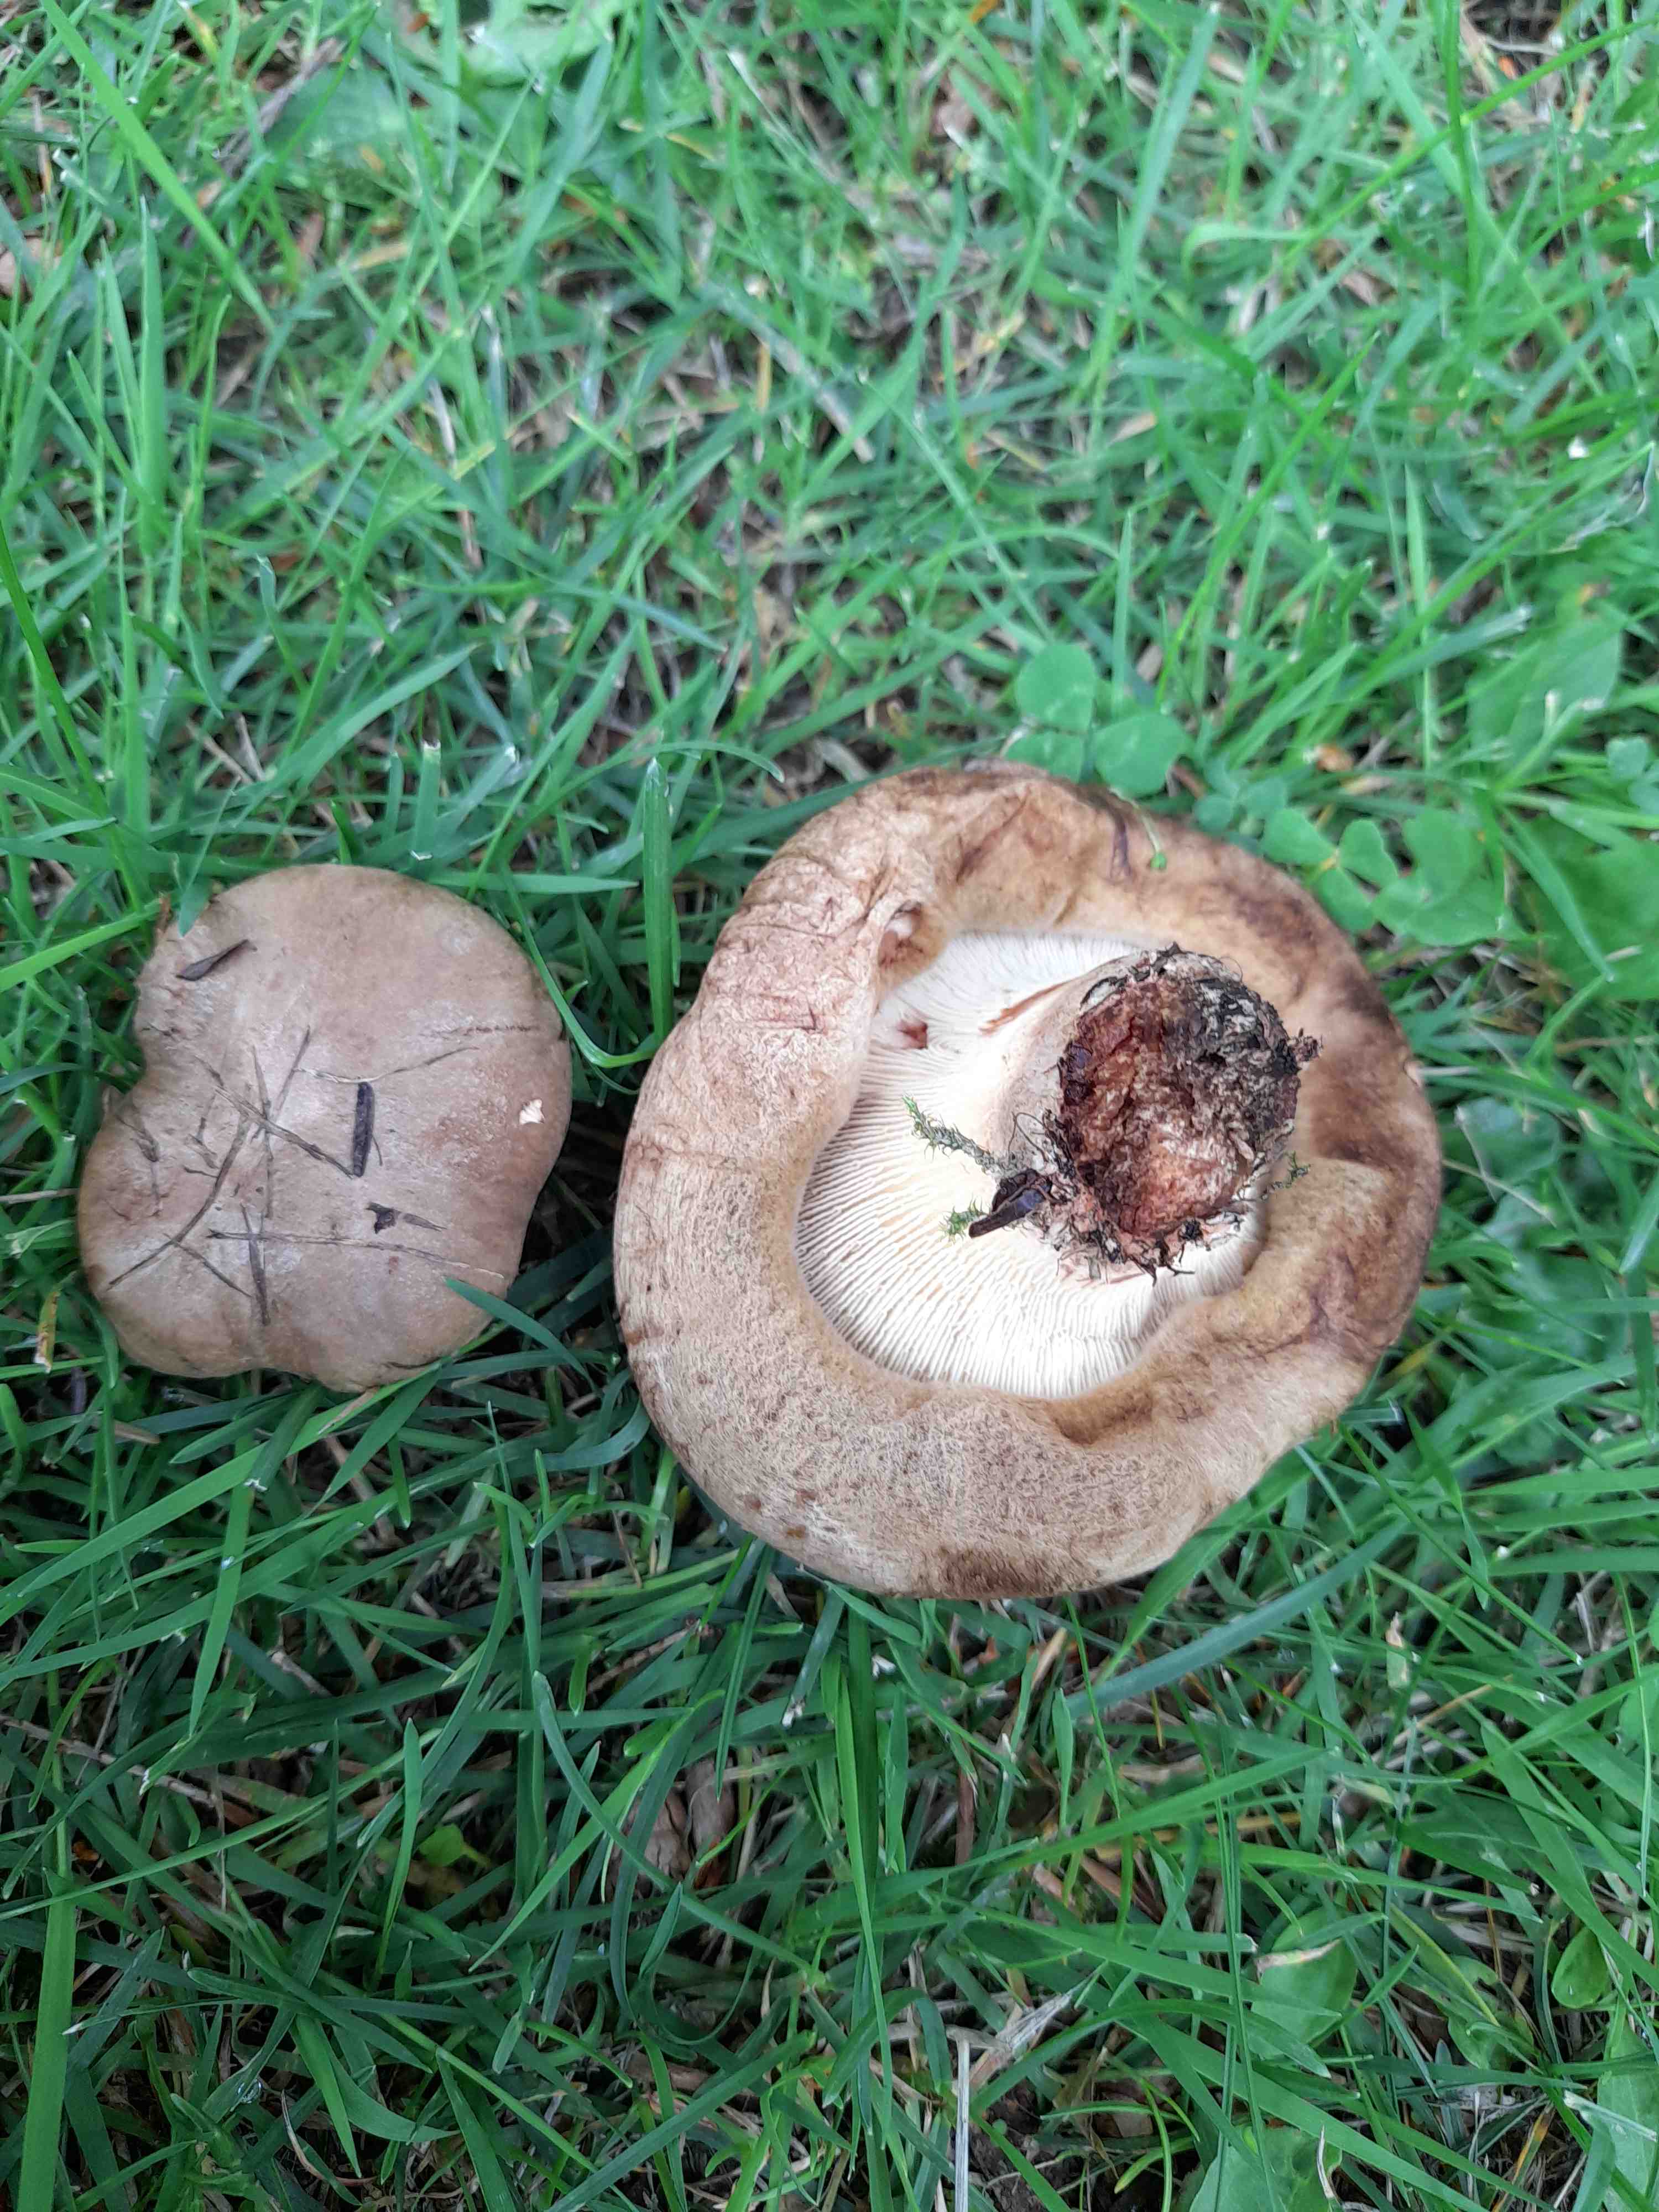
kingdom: Fungi
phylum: Basidiomycota
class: Agaricomycetes
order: Boletales
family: Paxillaceae
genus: Paxillus
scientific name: Paxillus involutus
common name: almindelig netbladhat
